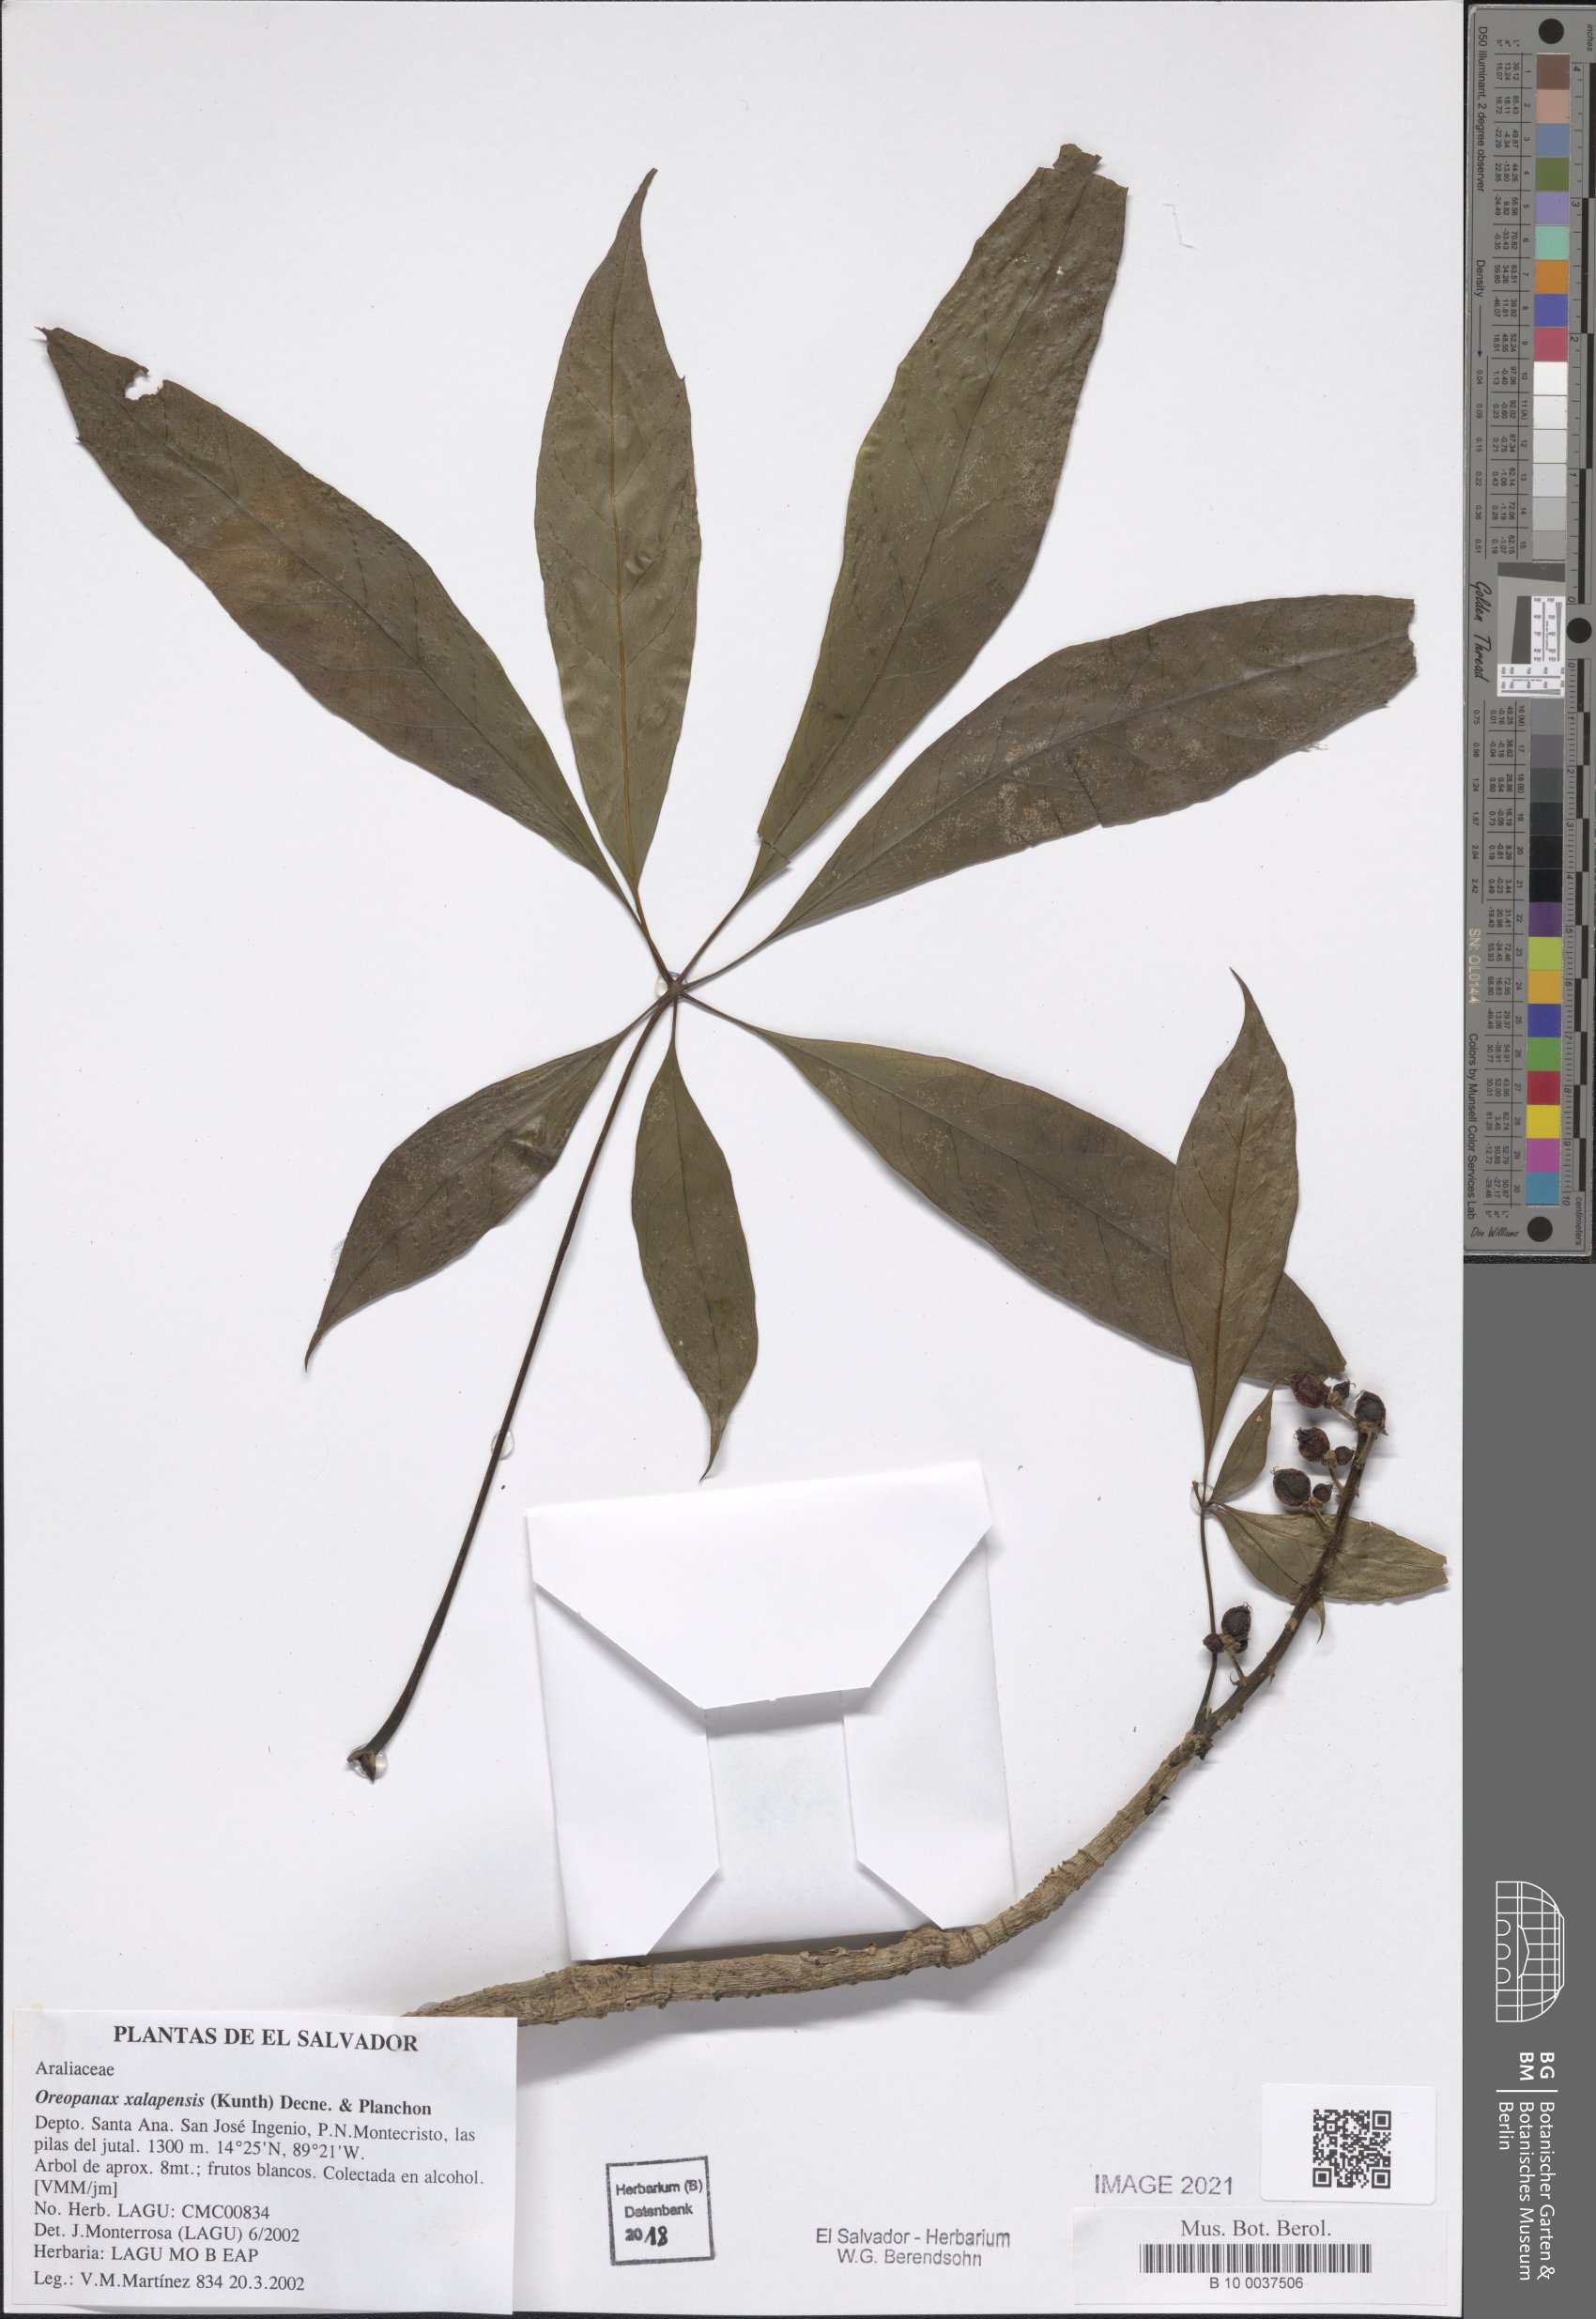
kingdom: Plantae
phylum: Tracheophyta
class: Magnoliopsida
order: Apiales
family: Araliaceae
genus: Oreopanax
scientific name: Oreopanax xalapensis
